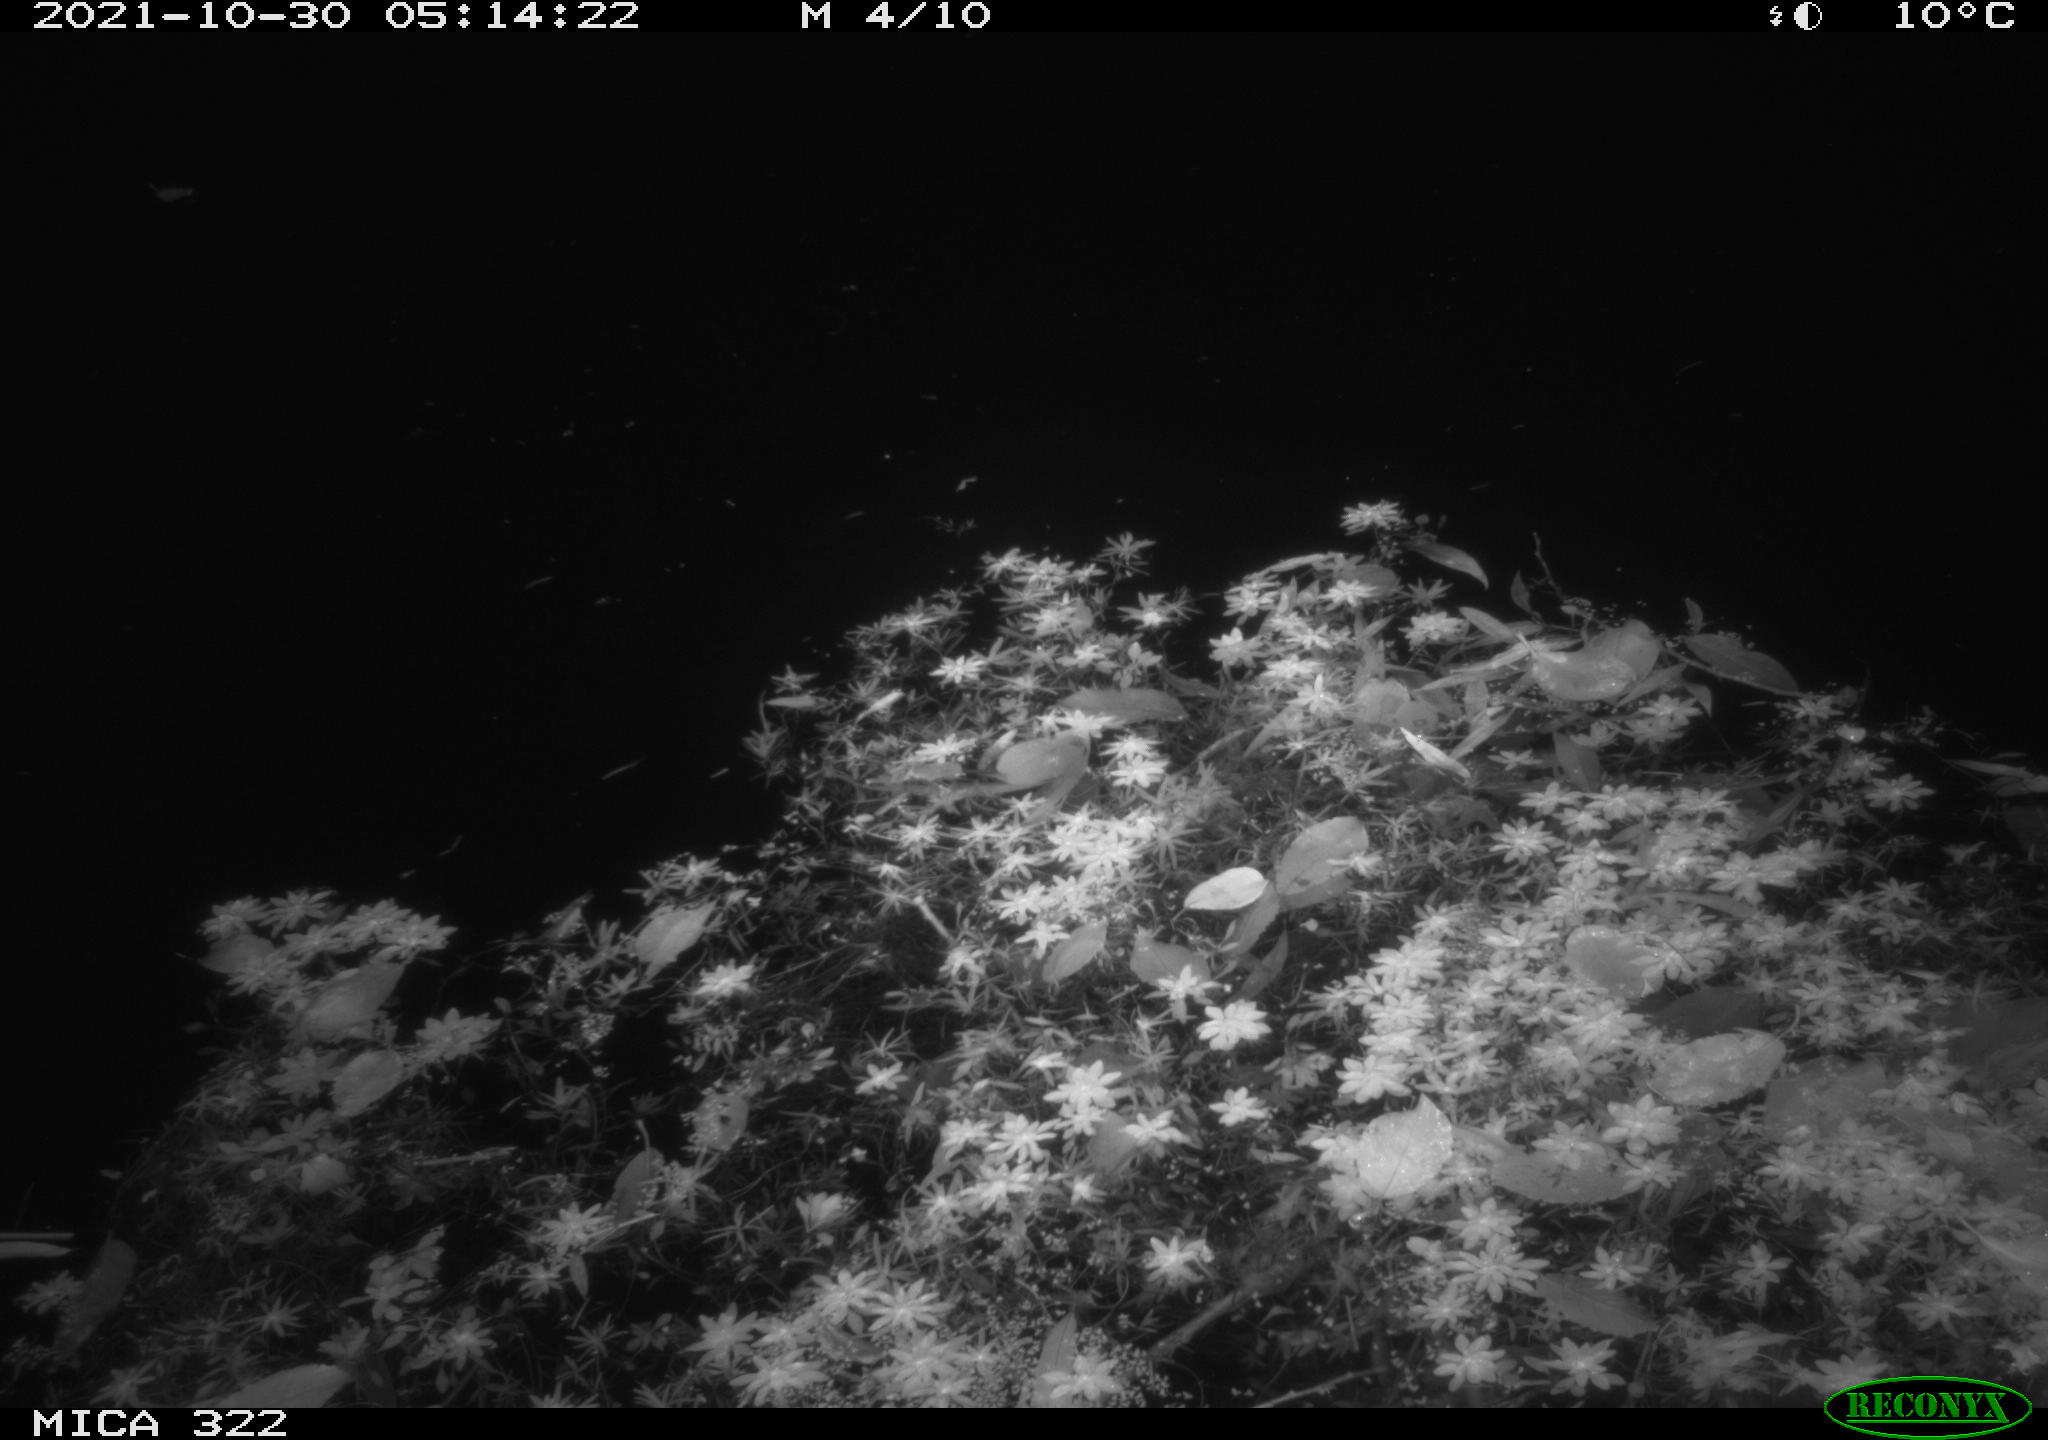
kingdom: Animalia
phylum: Chordata
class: Mammalia
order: Rodentia
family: Muridae
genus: Rattus
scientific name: Rattus norvegicus
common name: Brown rat
